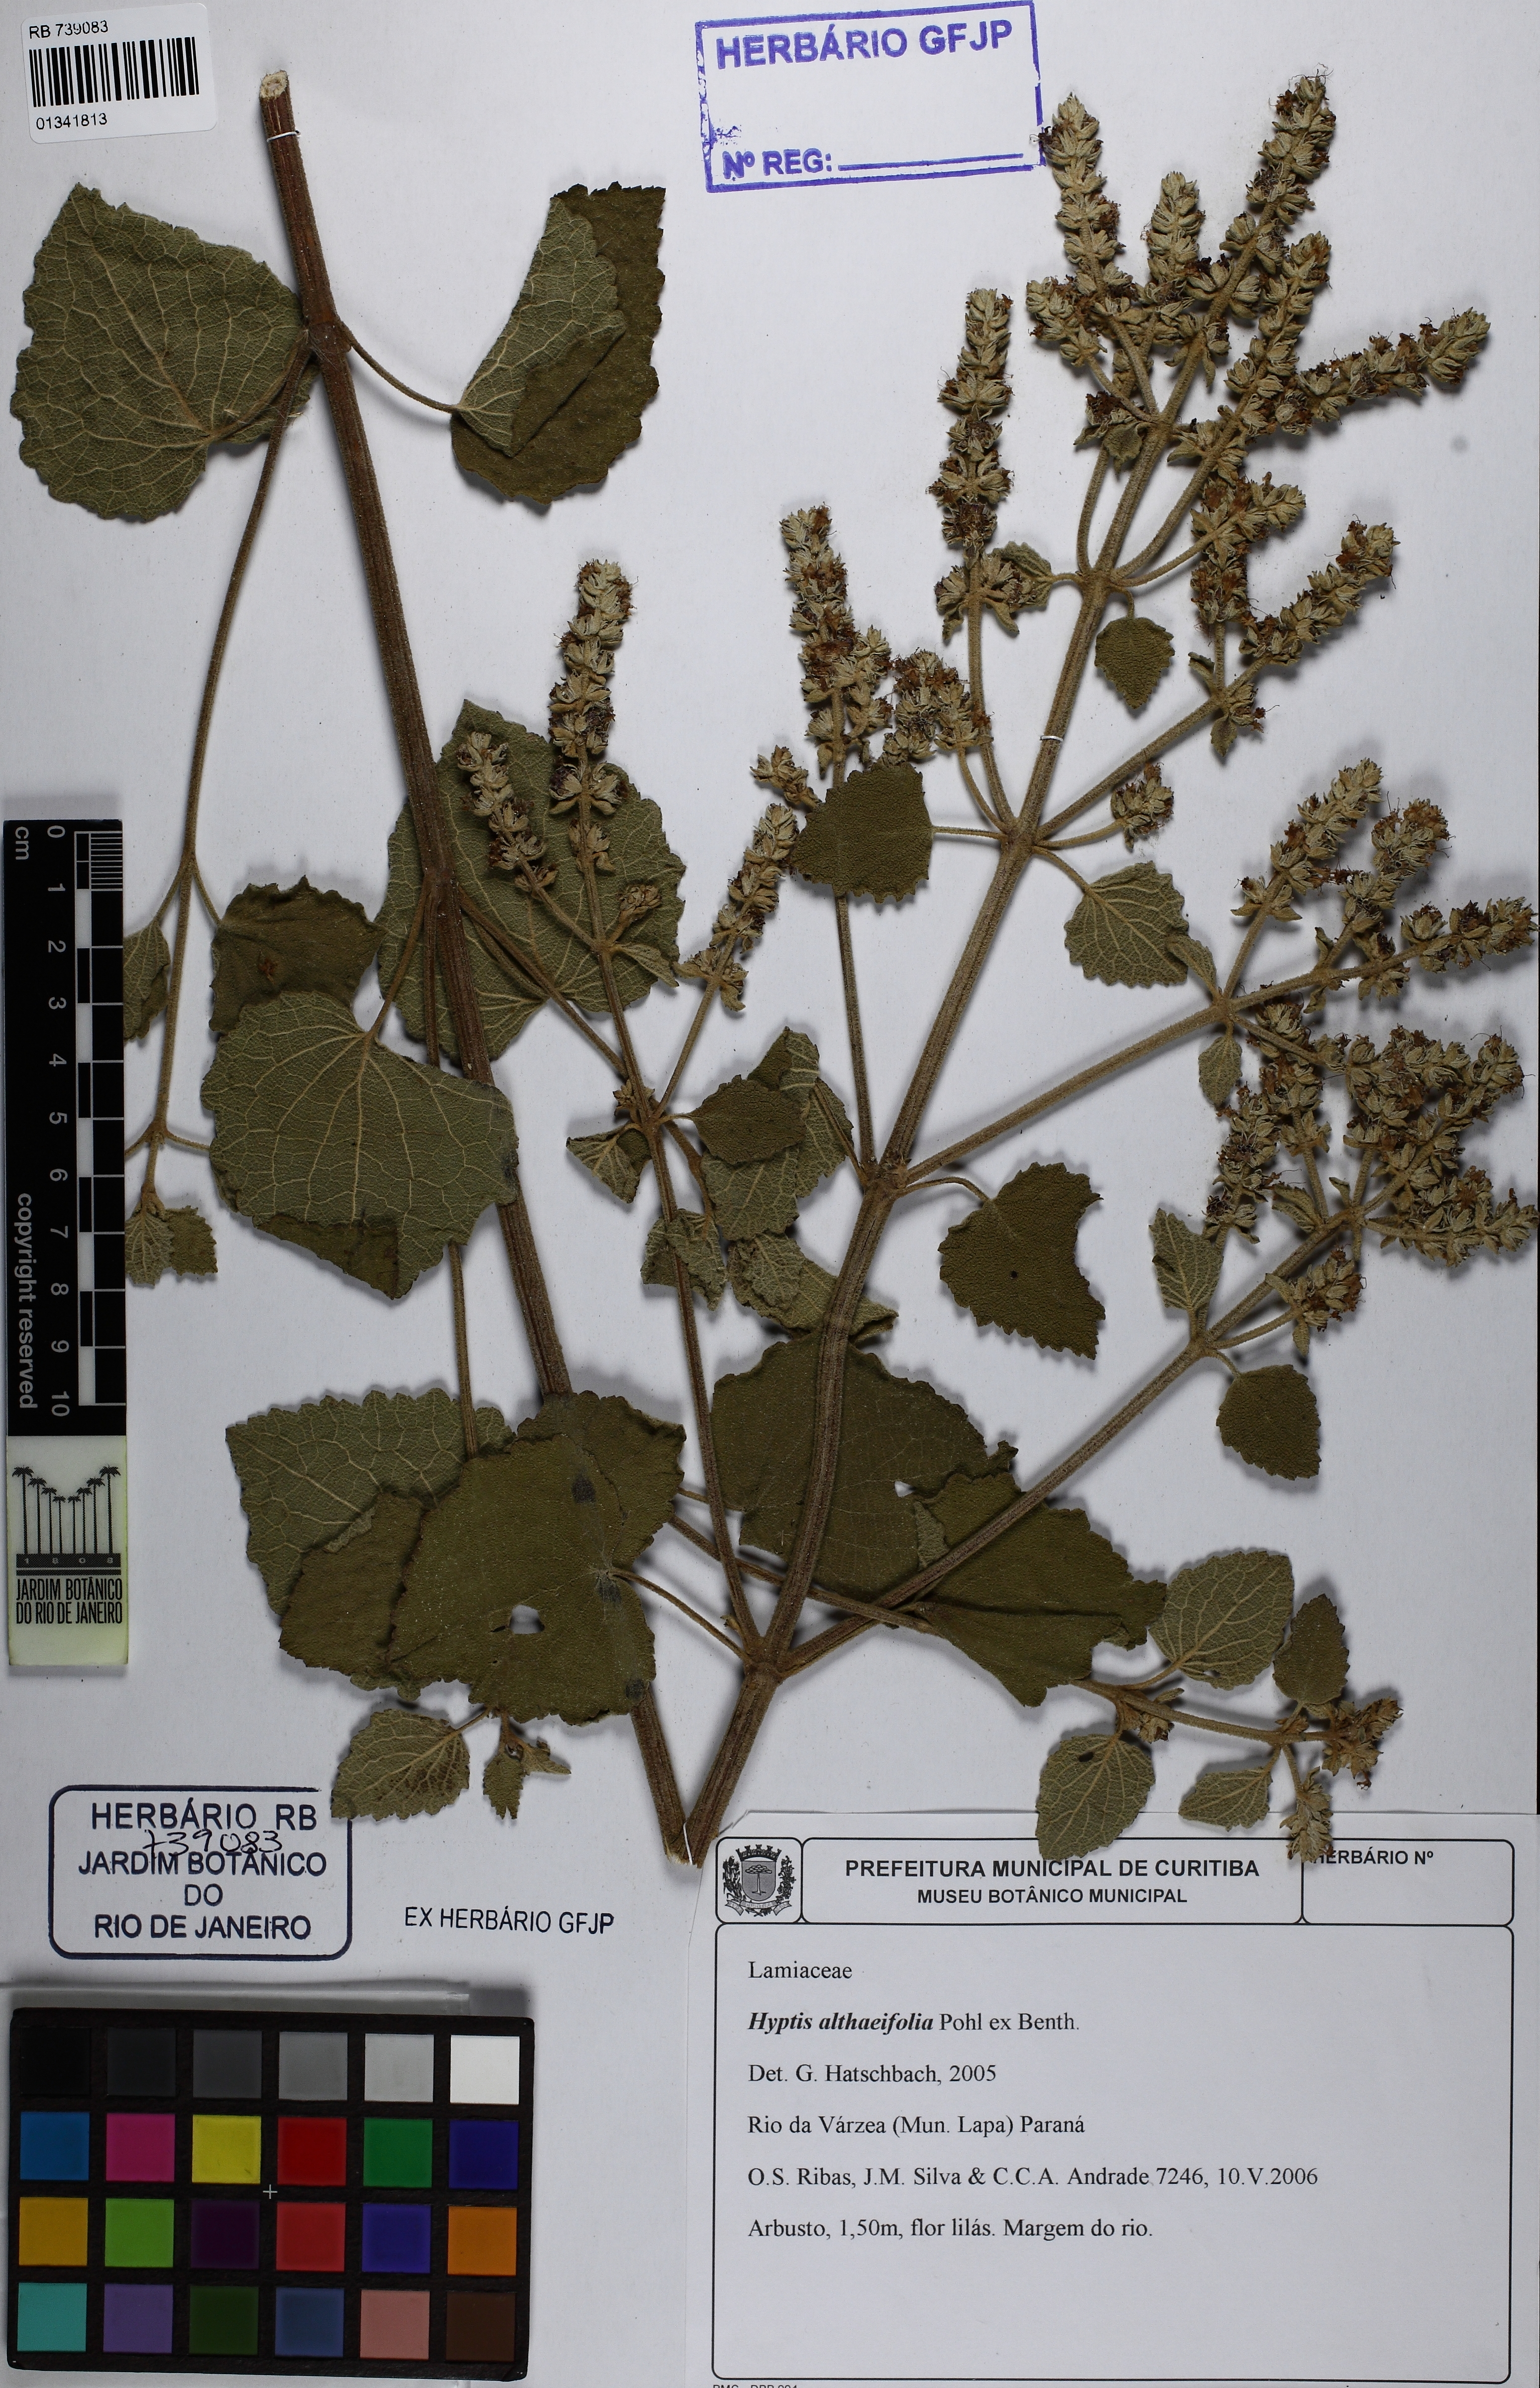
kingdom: Plantae
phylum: Tracheophyta
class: Magnoliopsida
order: Lamiales
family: Lamiaceae
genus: Cantinoa
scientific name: Cantinoa althaeifolia
